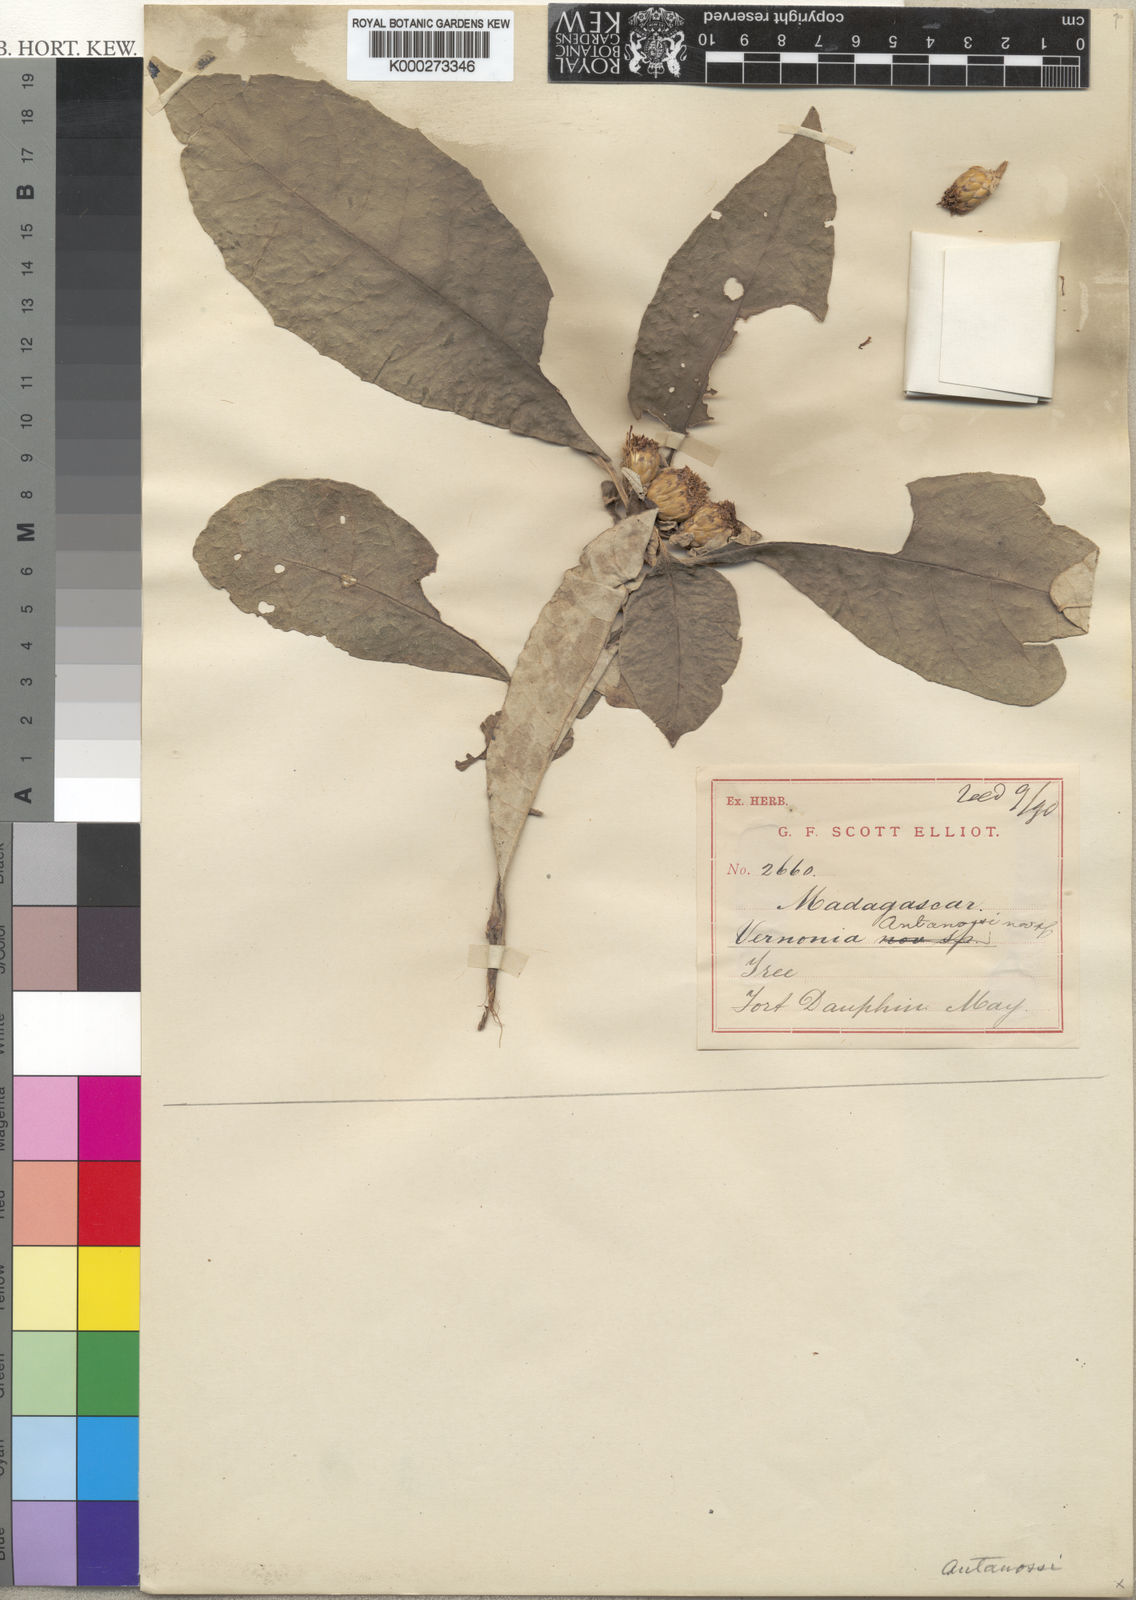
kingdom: Plantae
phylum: Tracheophyta
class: Magnoliopsida
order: Asterales
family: Asteraceae
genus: Centauropsis
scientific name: Centauropsis antanossi
